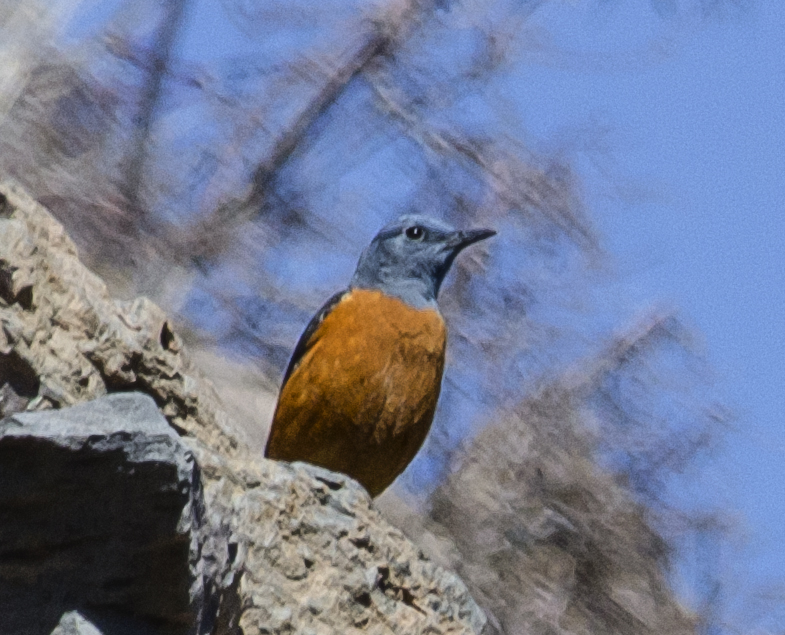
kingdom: Animalia
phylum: Chordata
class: Aves
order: Passeriformes
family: Muscicapidae
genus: Monticola
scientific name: Monticola saxatilis
